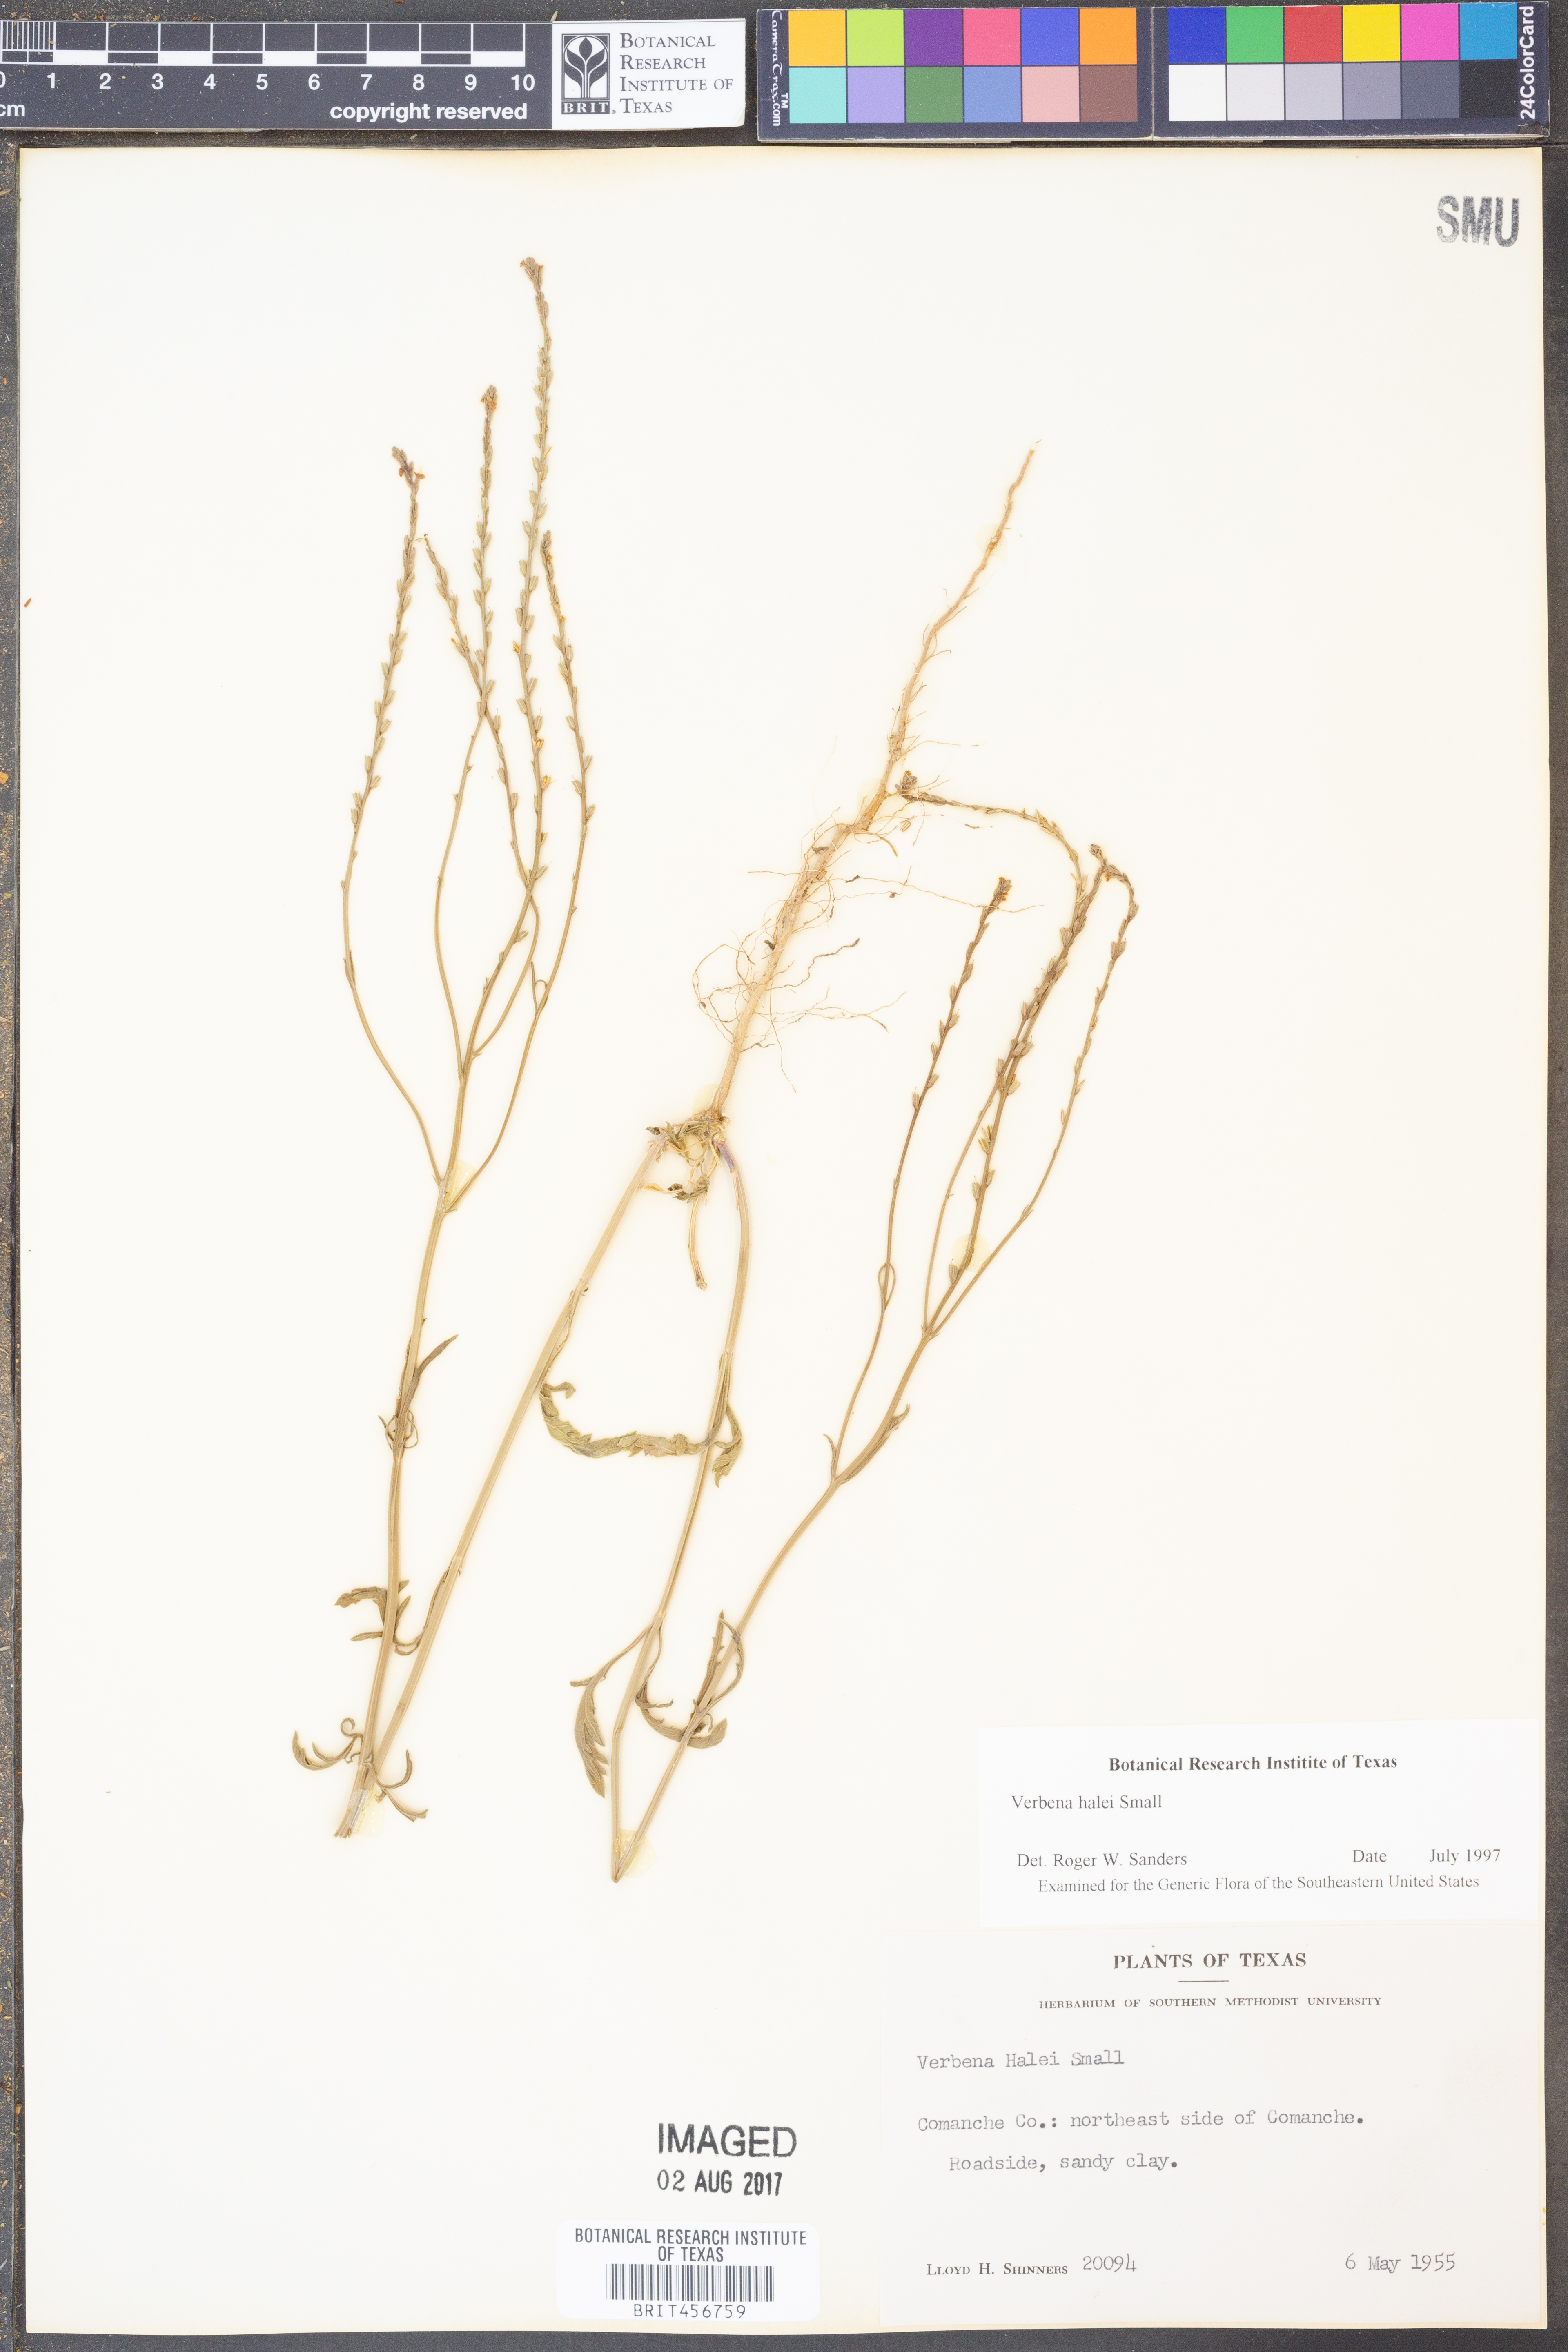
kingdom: Plantae
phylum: Tracheophyta
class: Magnoliopsida
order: Lamiales
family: Verbenaceae
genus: Verbena
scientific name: Verbena halei
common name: Texas vervain
